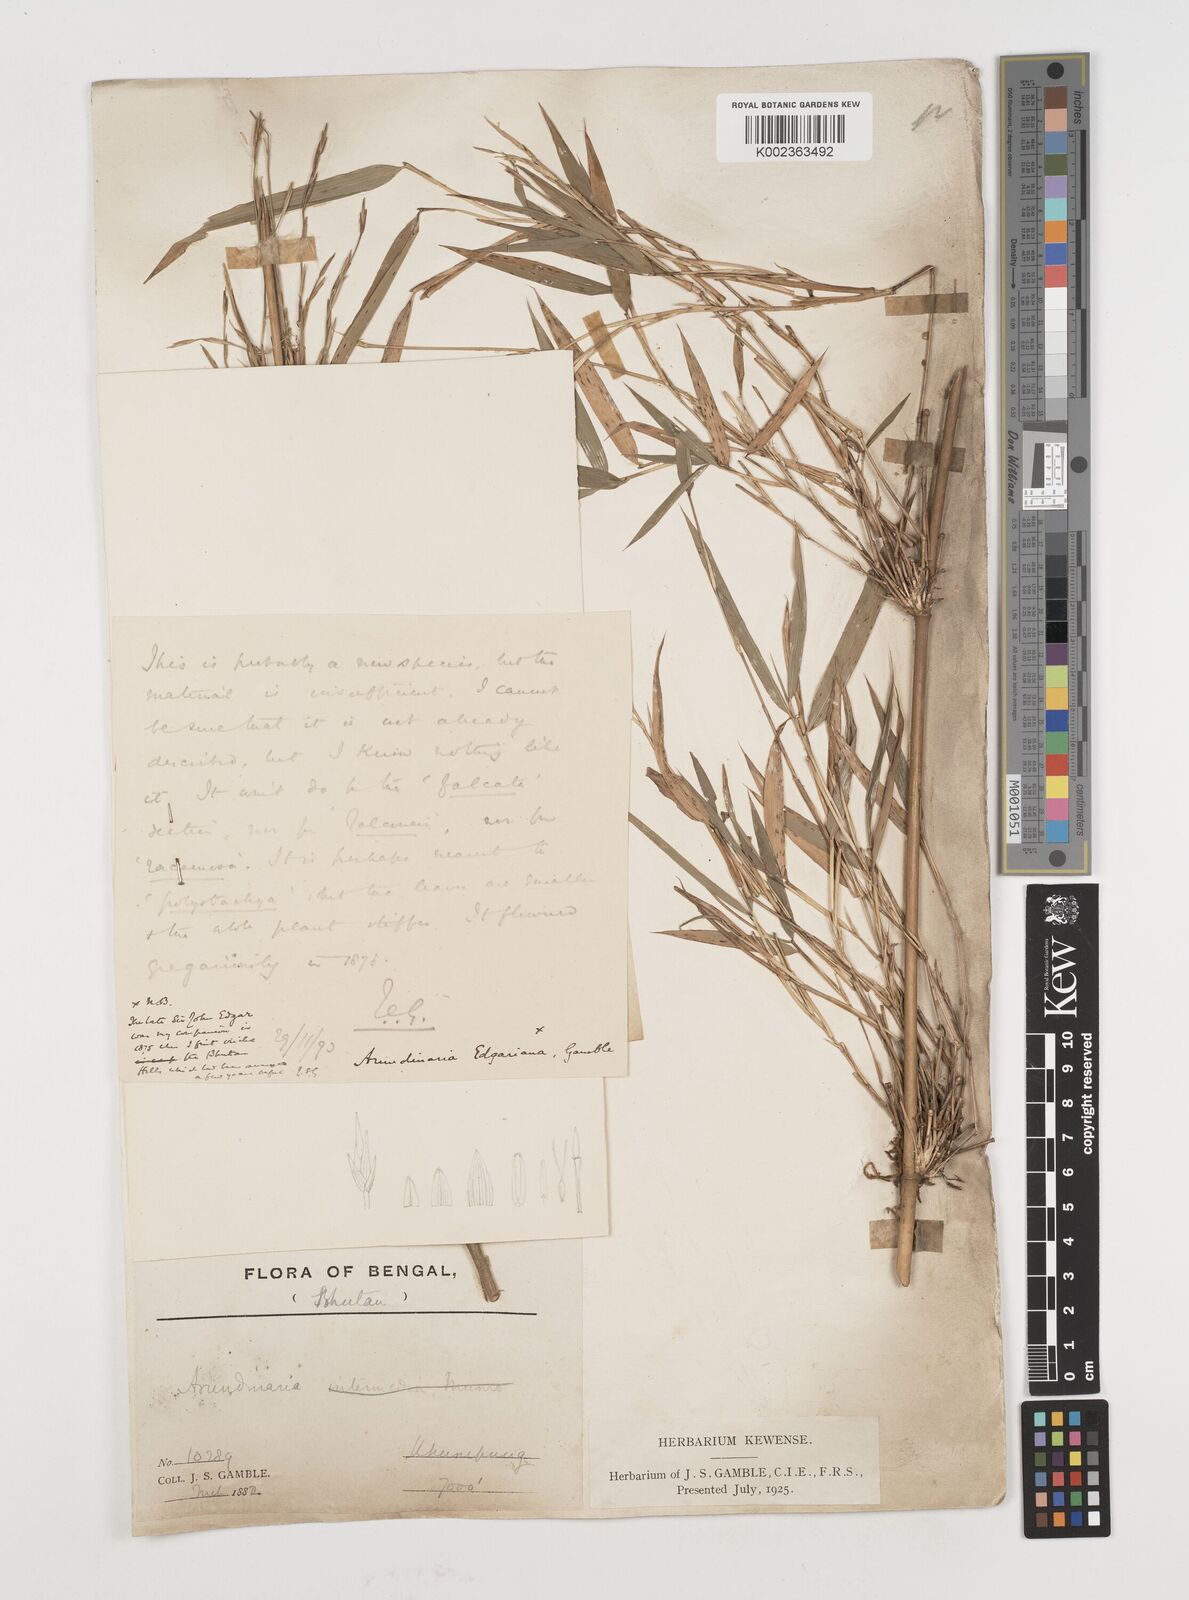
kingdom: Plantae
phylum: Tracheophyta
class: Liliopsida
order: Poales
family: Poaceae
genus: Himalayacalamus
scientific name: Himalayacalamus
